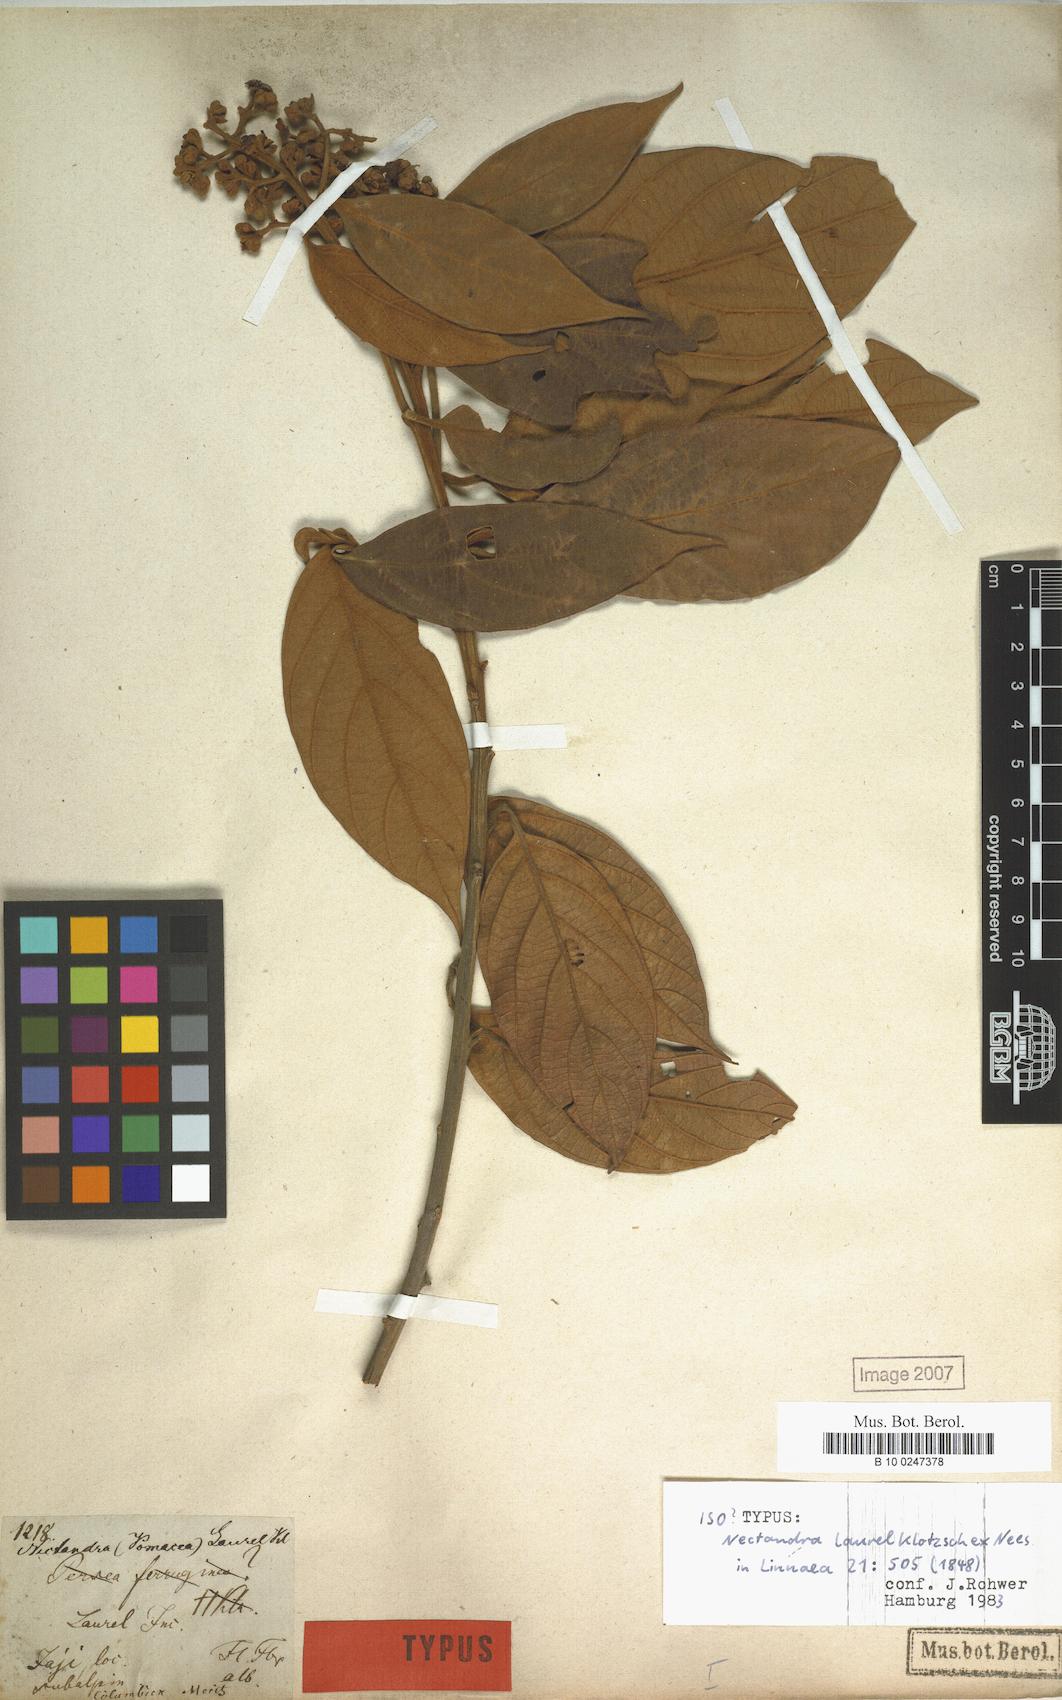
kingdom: Plantae
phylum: Tracheophyta
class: Magnoliopsida
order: Laurales
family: Lauraceae
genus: Nectandra
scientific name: Nectandra laurel
